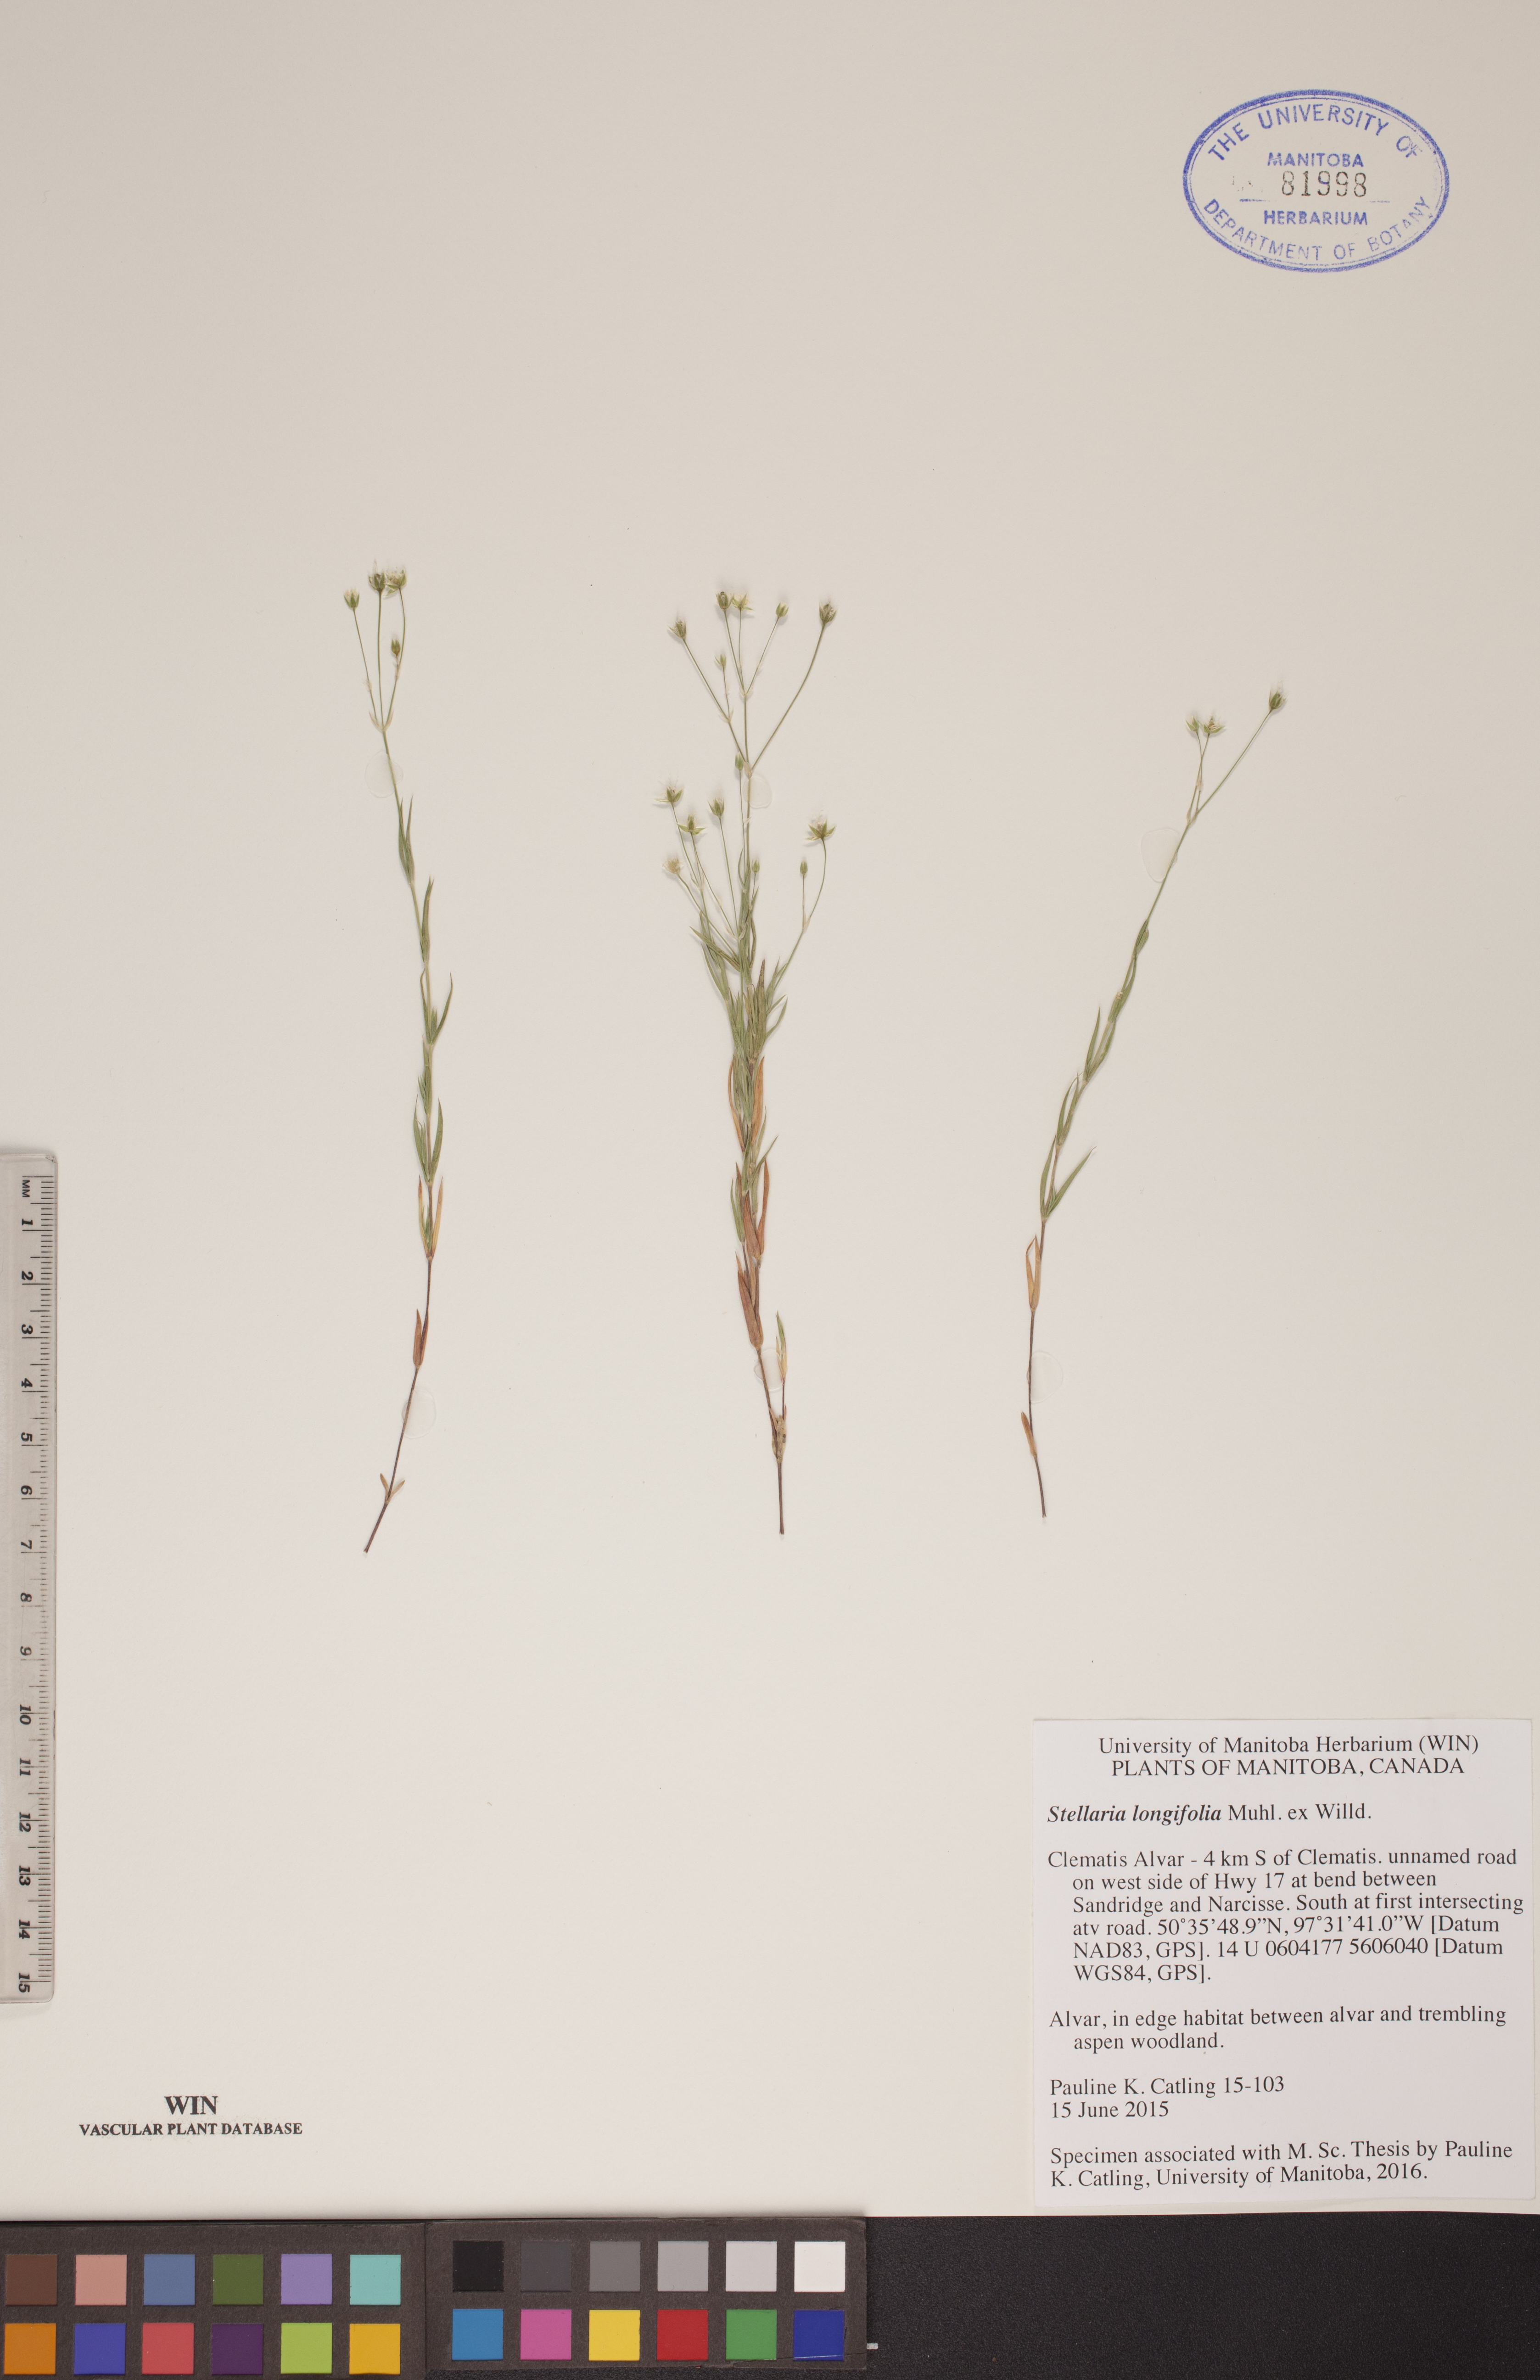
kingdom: Plantae
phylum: Tracheophyta
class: Magnoliopsida
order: Caryophyllales
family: Caryophyllaceae
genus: Stellaria
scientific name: Stellaria longifolia
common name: Long-leaved chickweed
